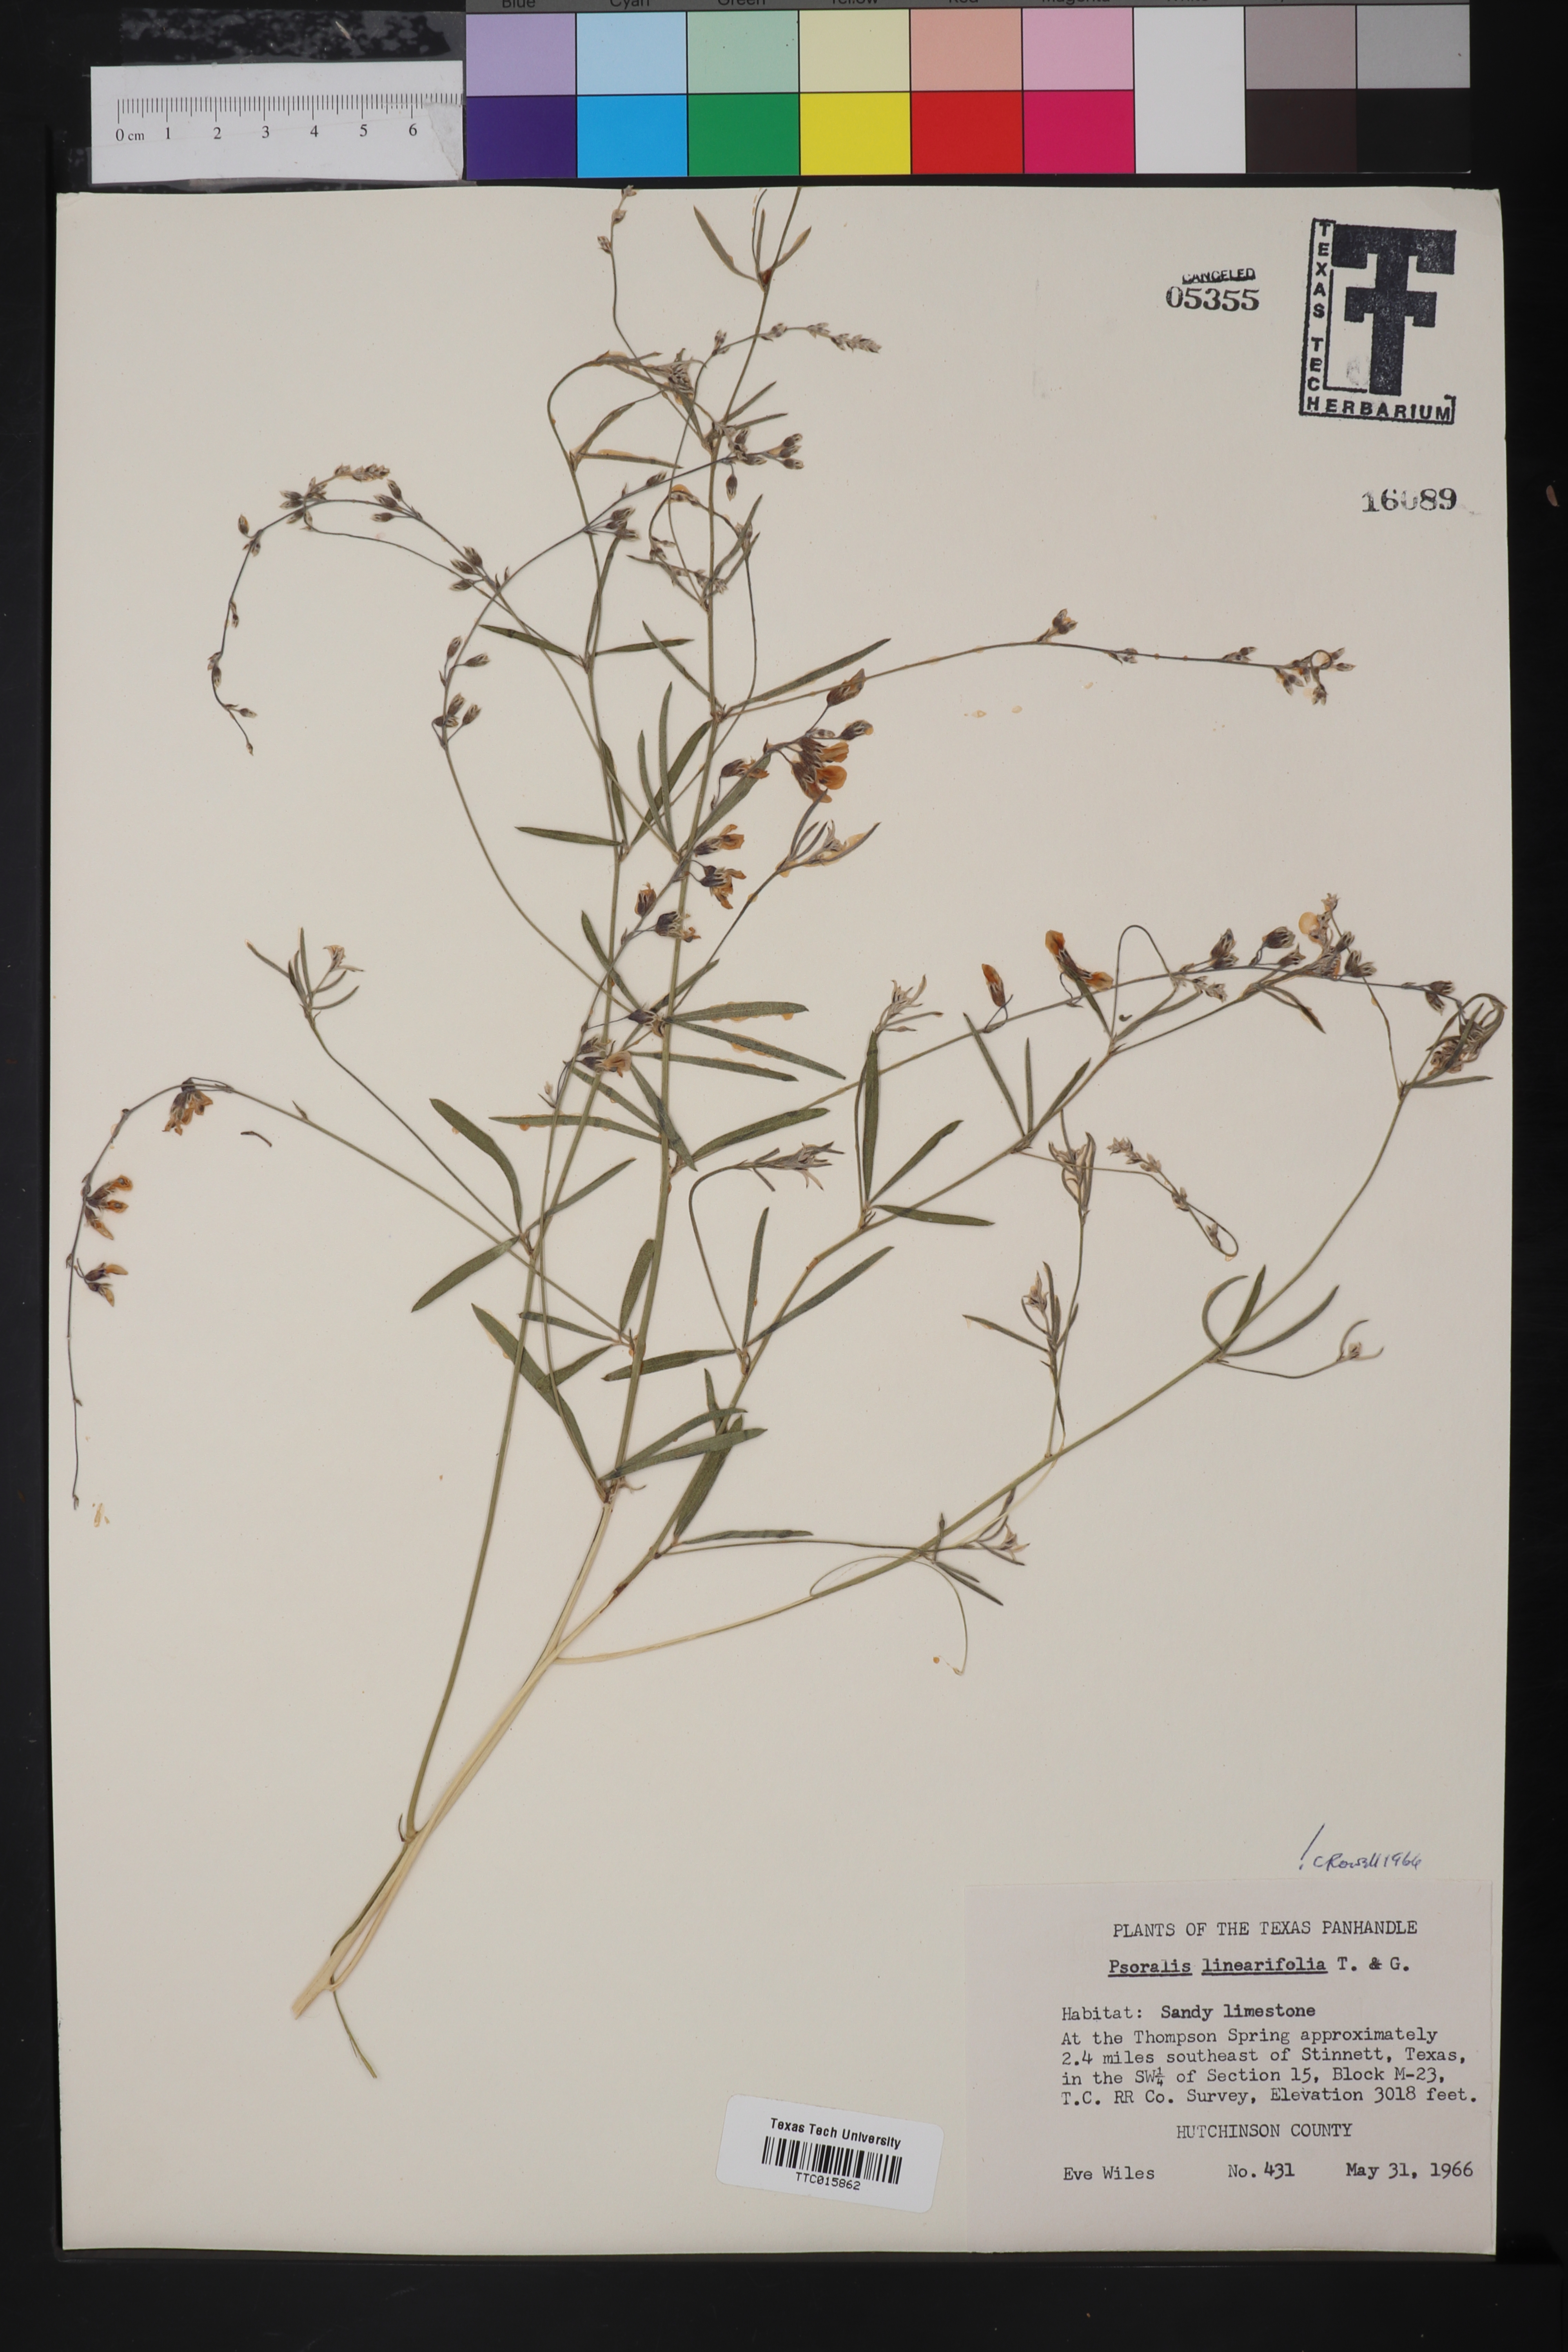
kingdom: Plantae
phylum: Tracheophyta
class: Magnoliopsida
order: Fabales
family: Fabaceae
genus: Pediomelum
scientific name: Pediomelum linearifolium
